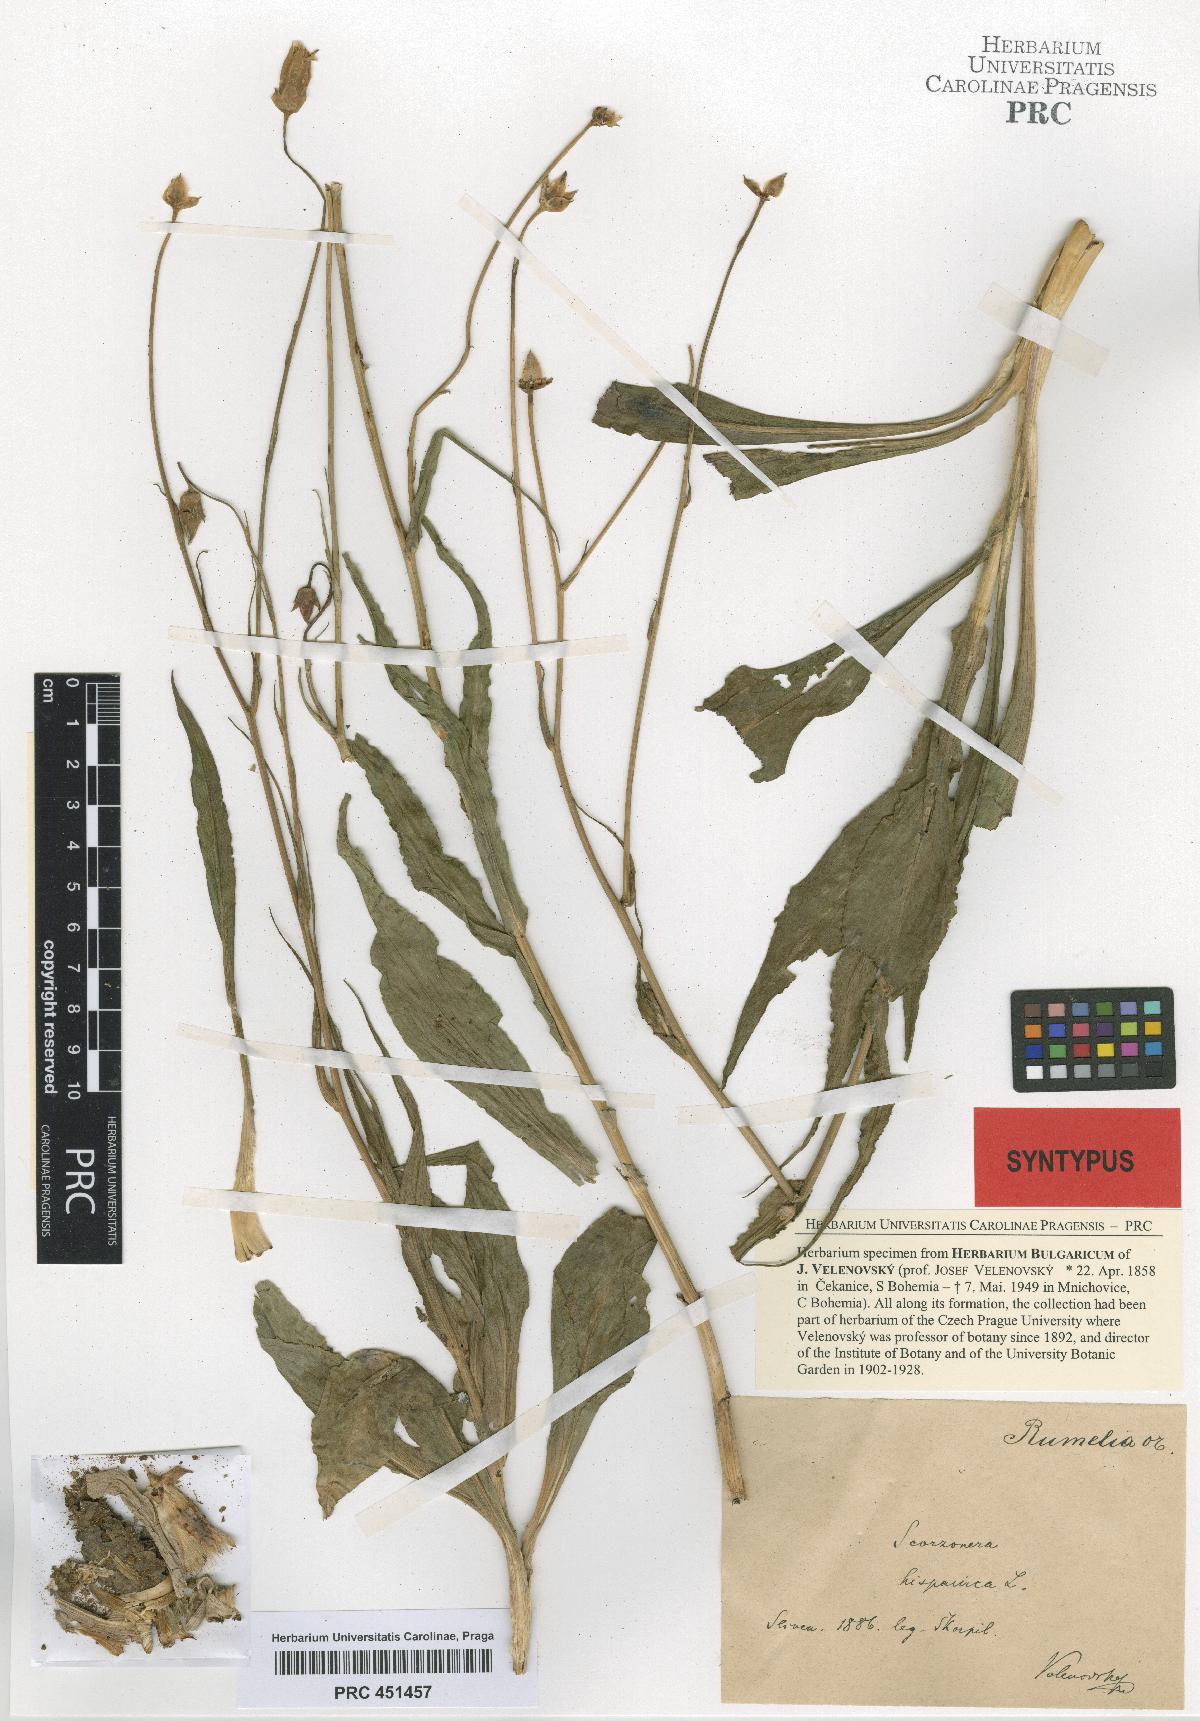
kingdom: Plantae
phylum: Tracheophyta
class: Magnoliopsida
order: Asterales
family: Asteraceae
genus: Pseudopodospermum
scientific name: Pseudopodospermum hispanicum
